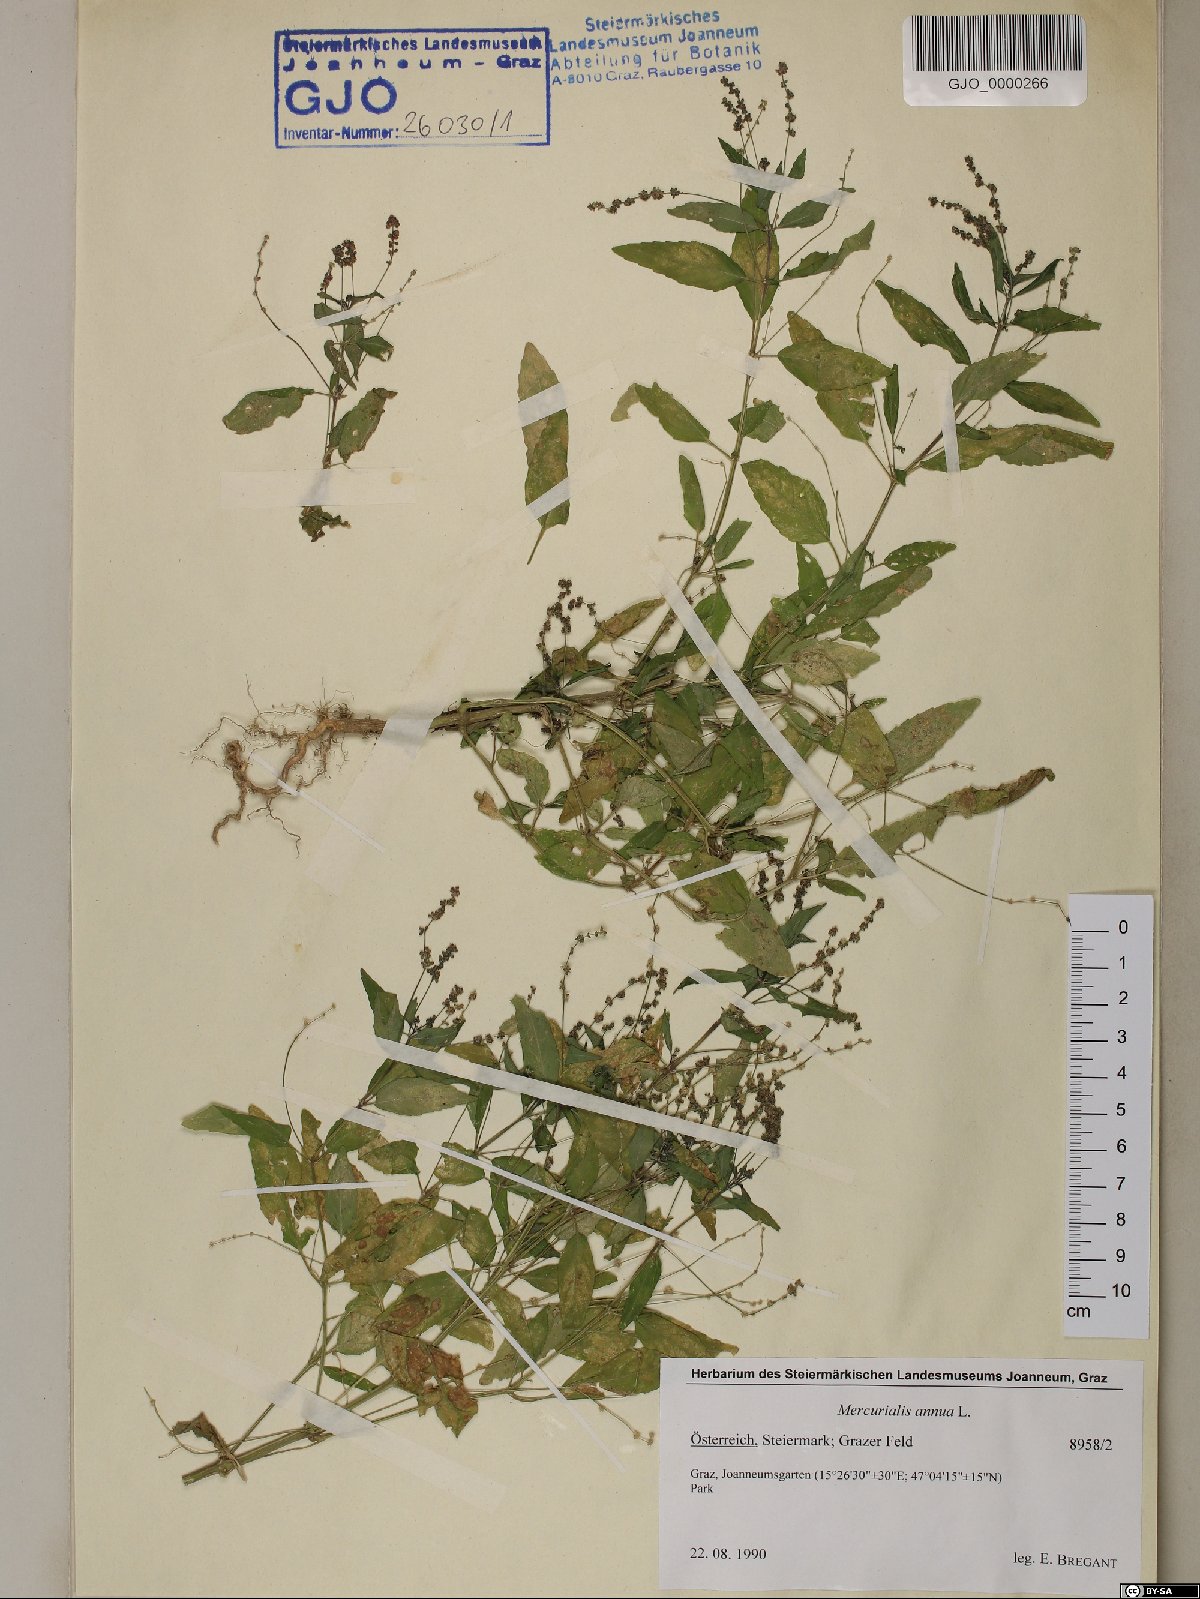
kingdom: Plantae
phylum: Tracheophyta
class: Magnoliopsida
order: Malpighiales
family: Euphorbiaceae
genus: Mercurialis
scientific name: Mercurialis annua
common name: Annual mercury
